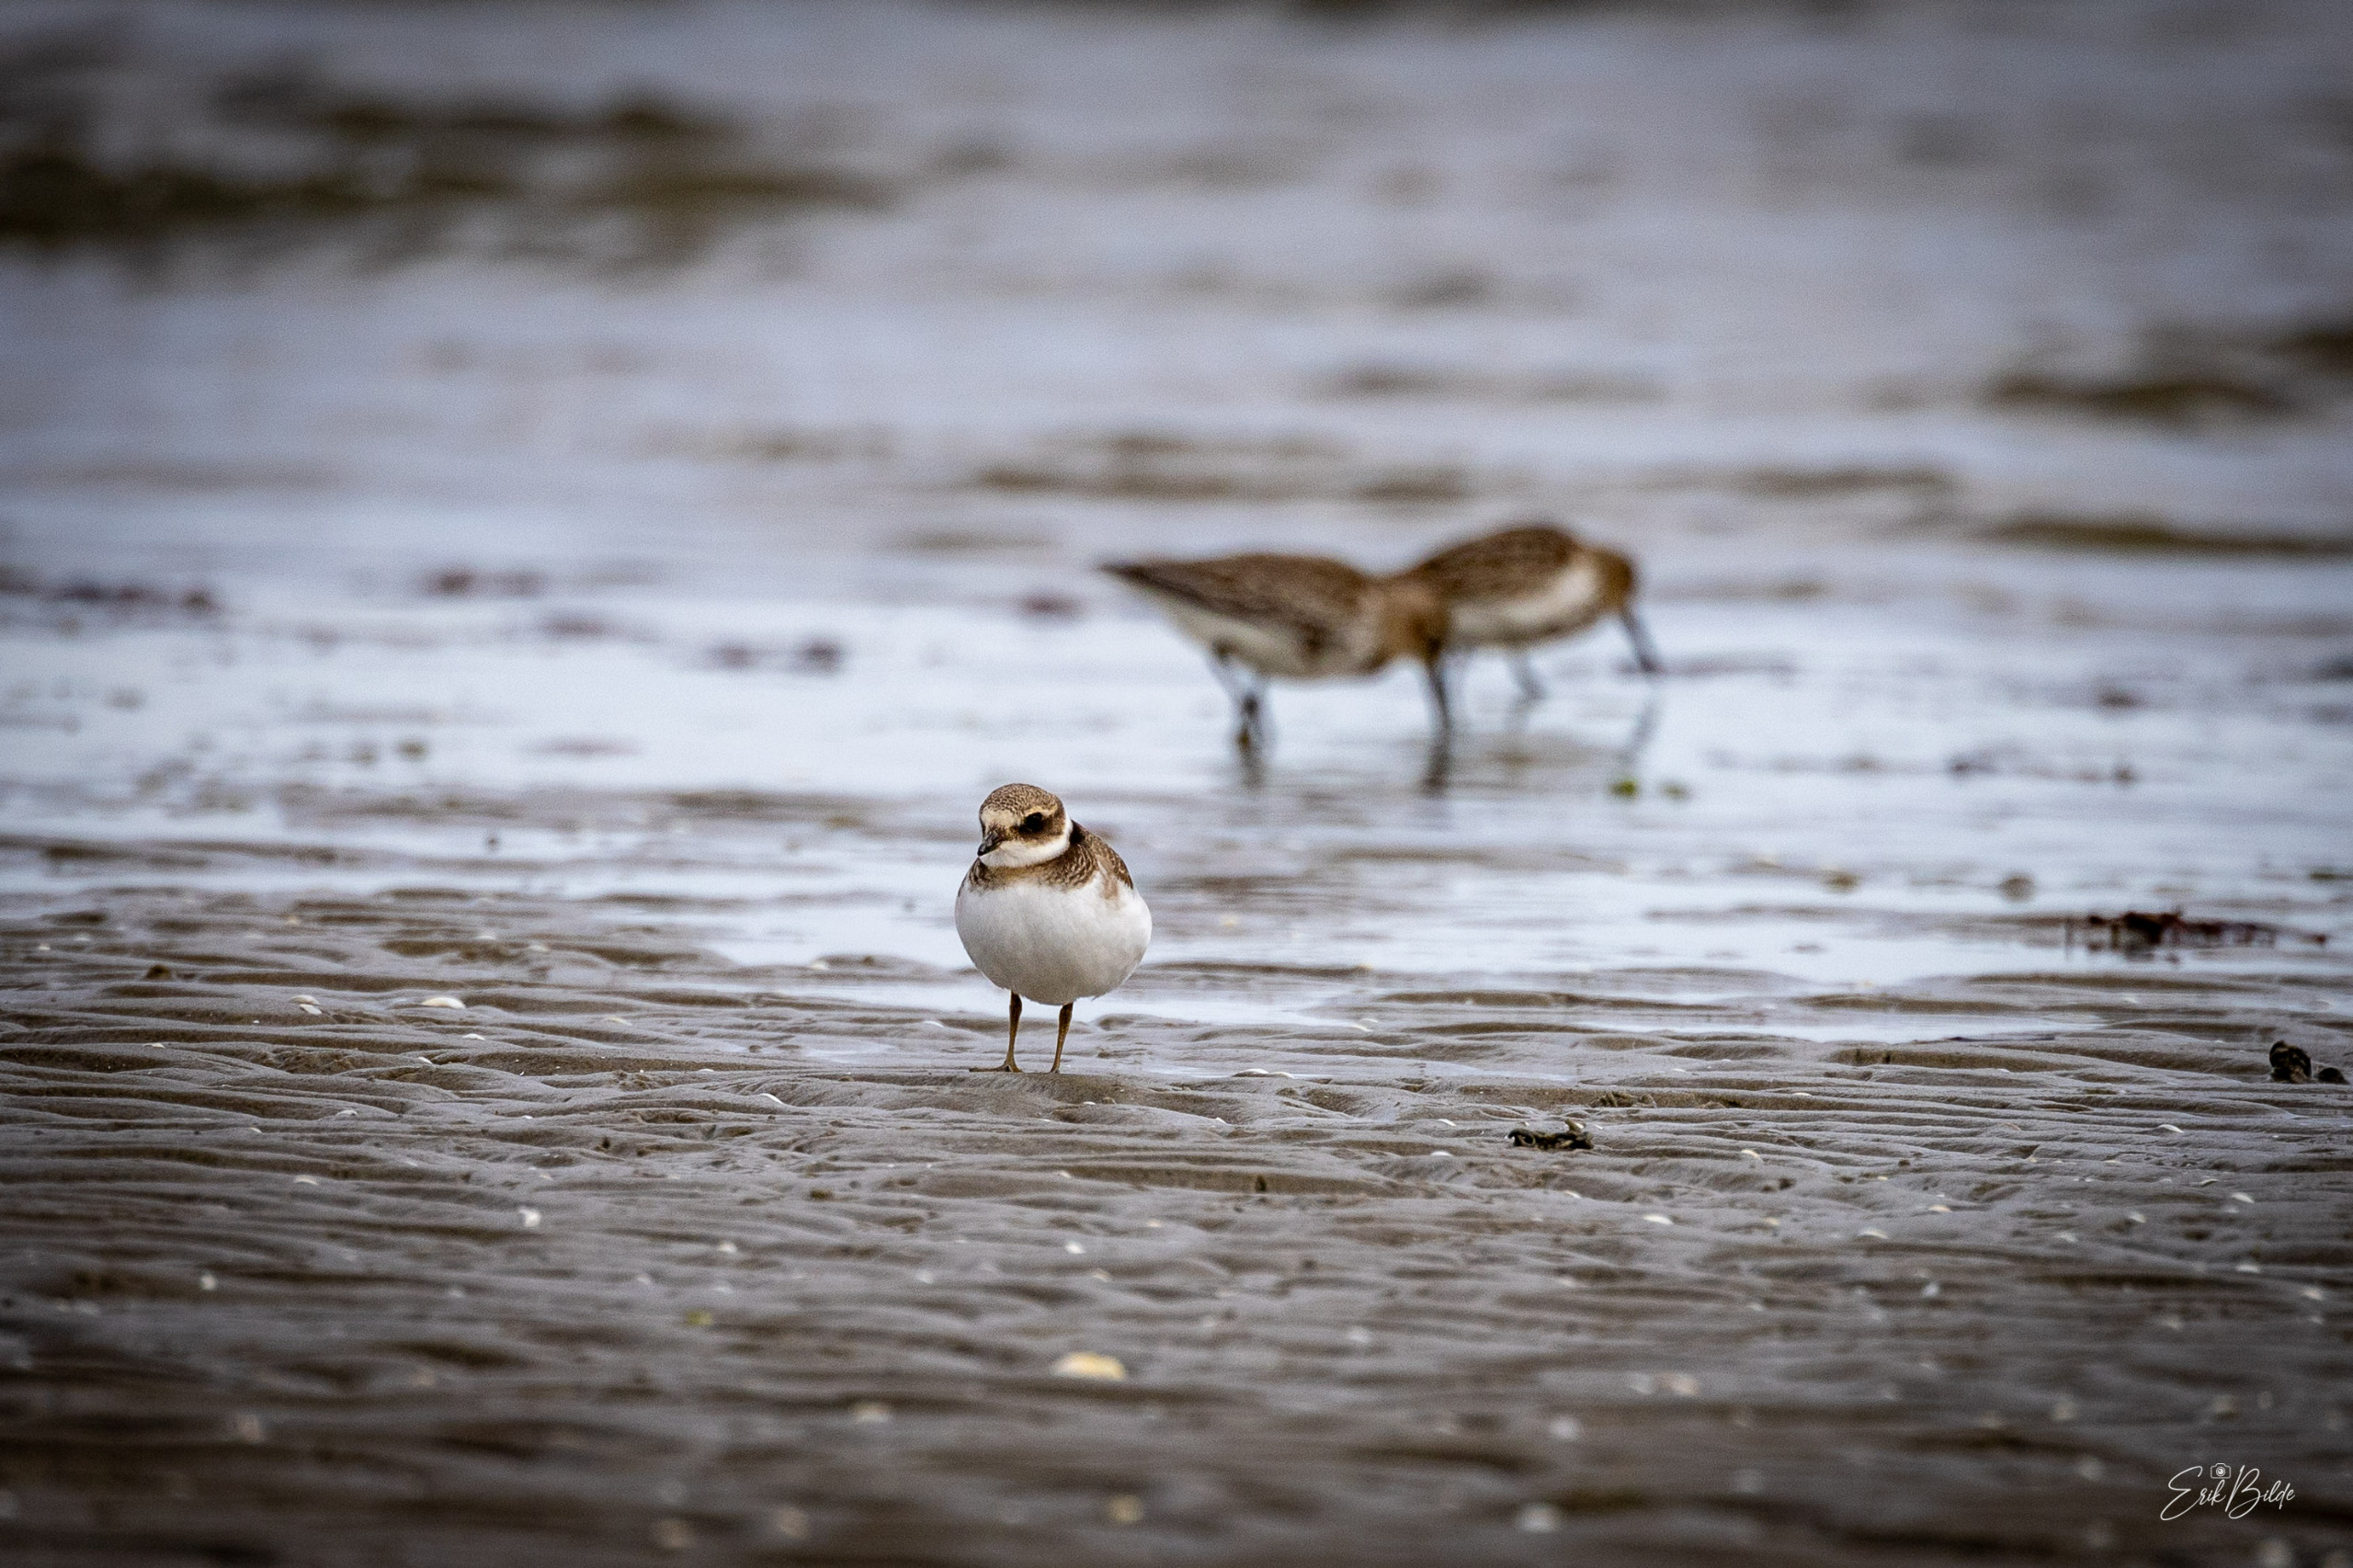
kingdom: Animalia
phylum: Chordata
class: Aves
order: Charadriiformes
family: Charadriidae
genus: Charadrius
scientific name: Charadrius hiaticula
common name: Stor præstekrave
